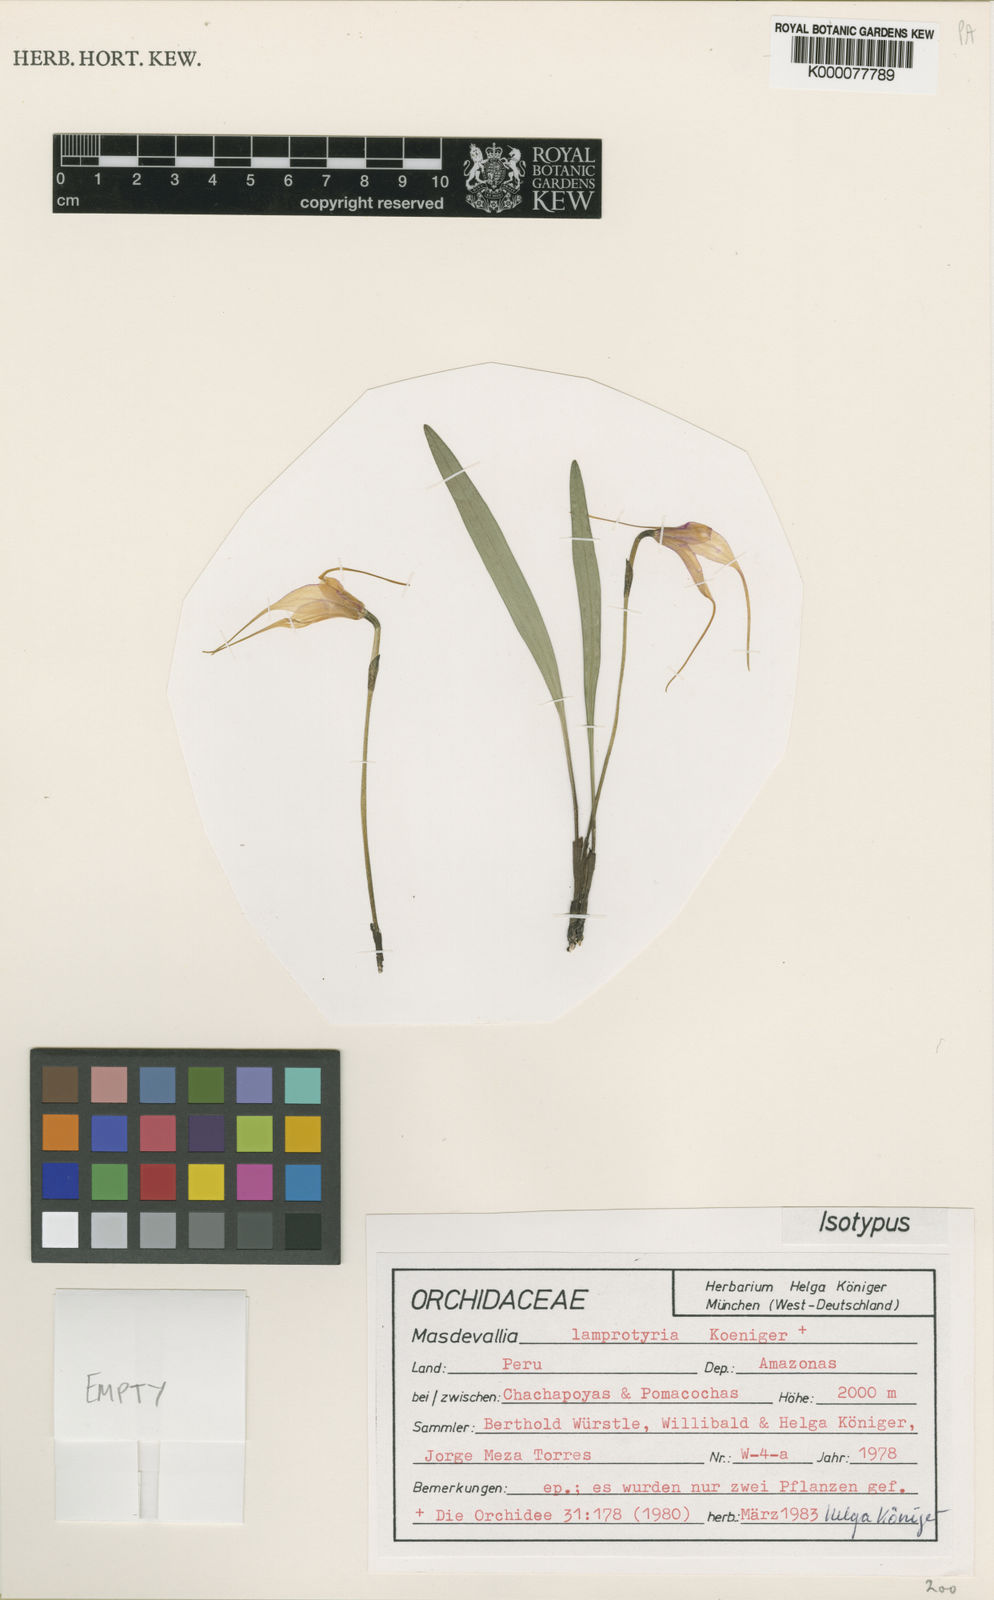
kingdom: Plantae
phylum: Tracheophyta
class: Liliopsida
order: Asparagales
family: Orchidaceae
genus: Masdevallia
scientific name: Masdevallia
